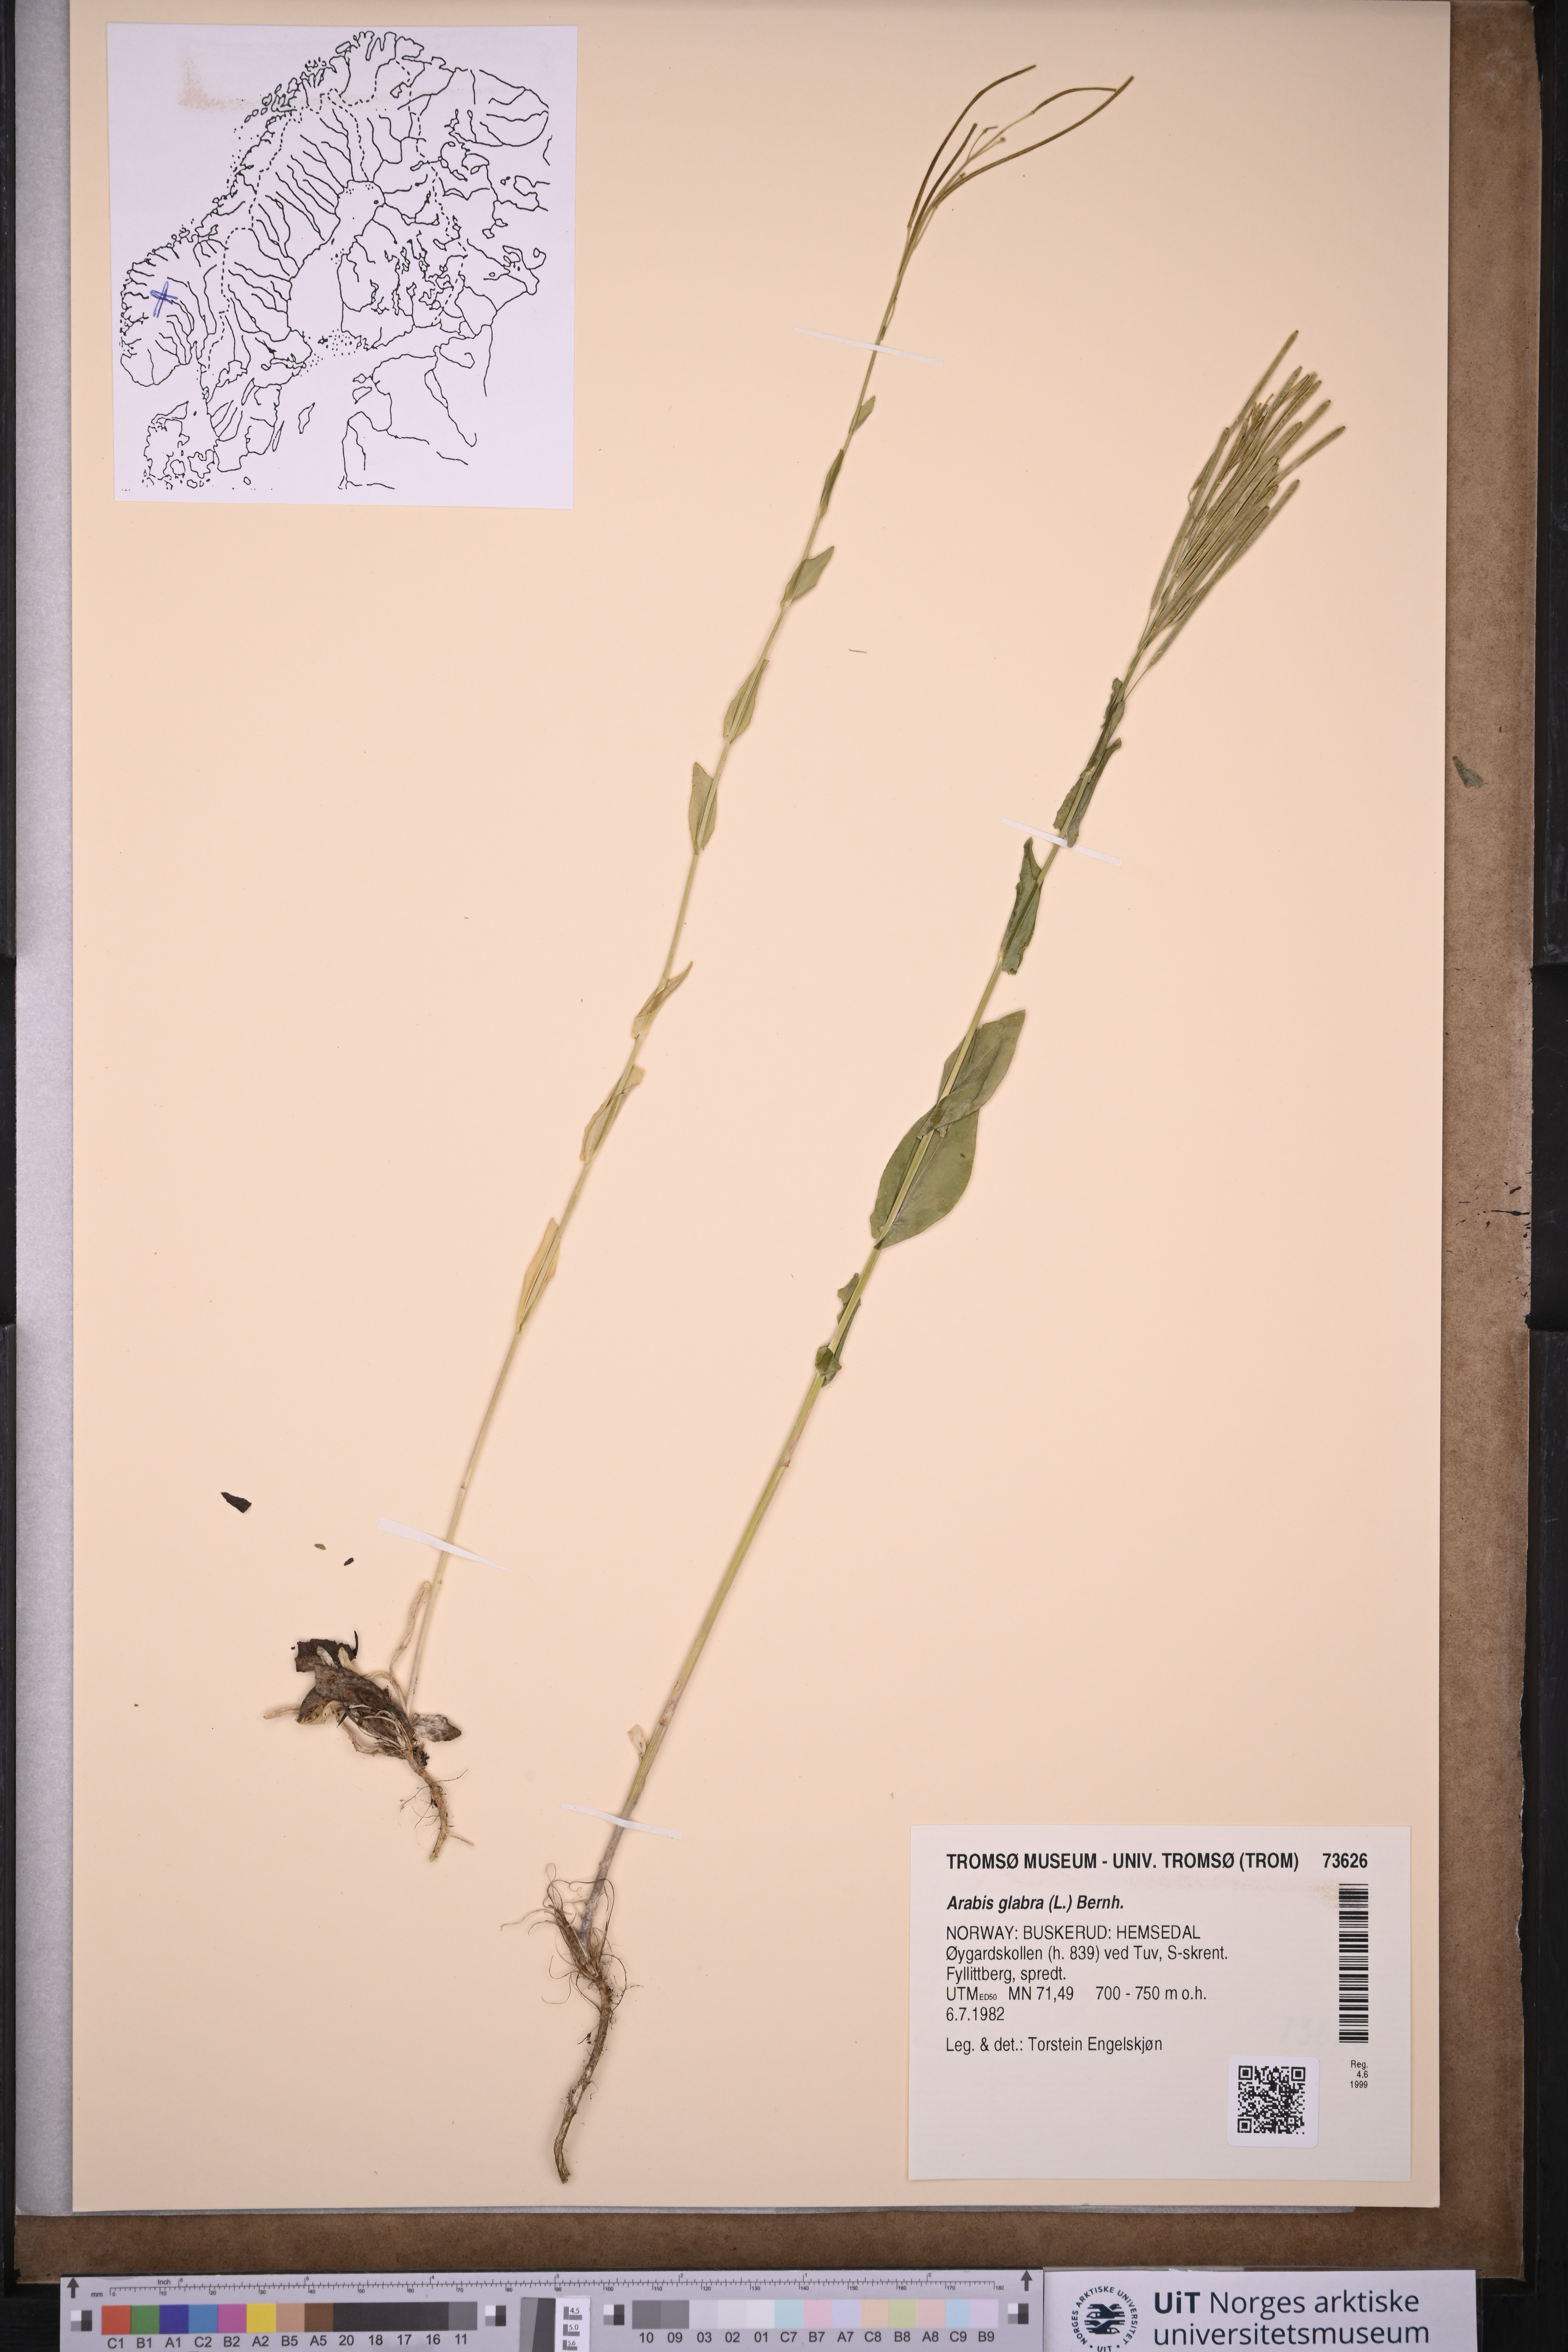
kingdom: Plantae
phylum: Tracheophyta
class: Magnoliopsida
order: Brassicales
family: Brassicaceae
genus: Turritis
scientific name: Turritis glabra
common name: Tower rockcress
